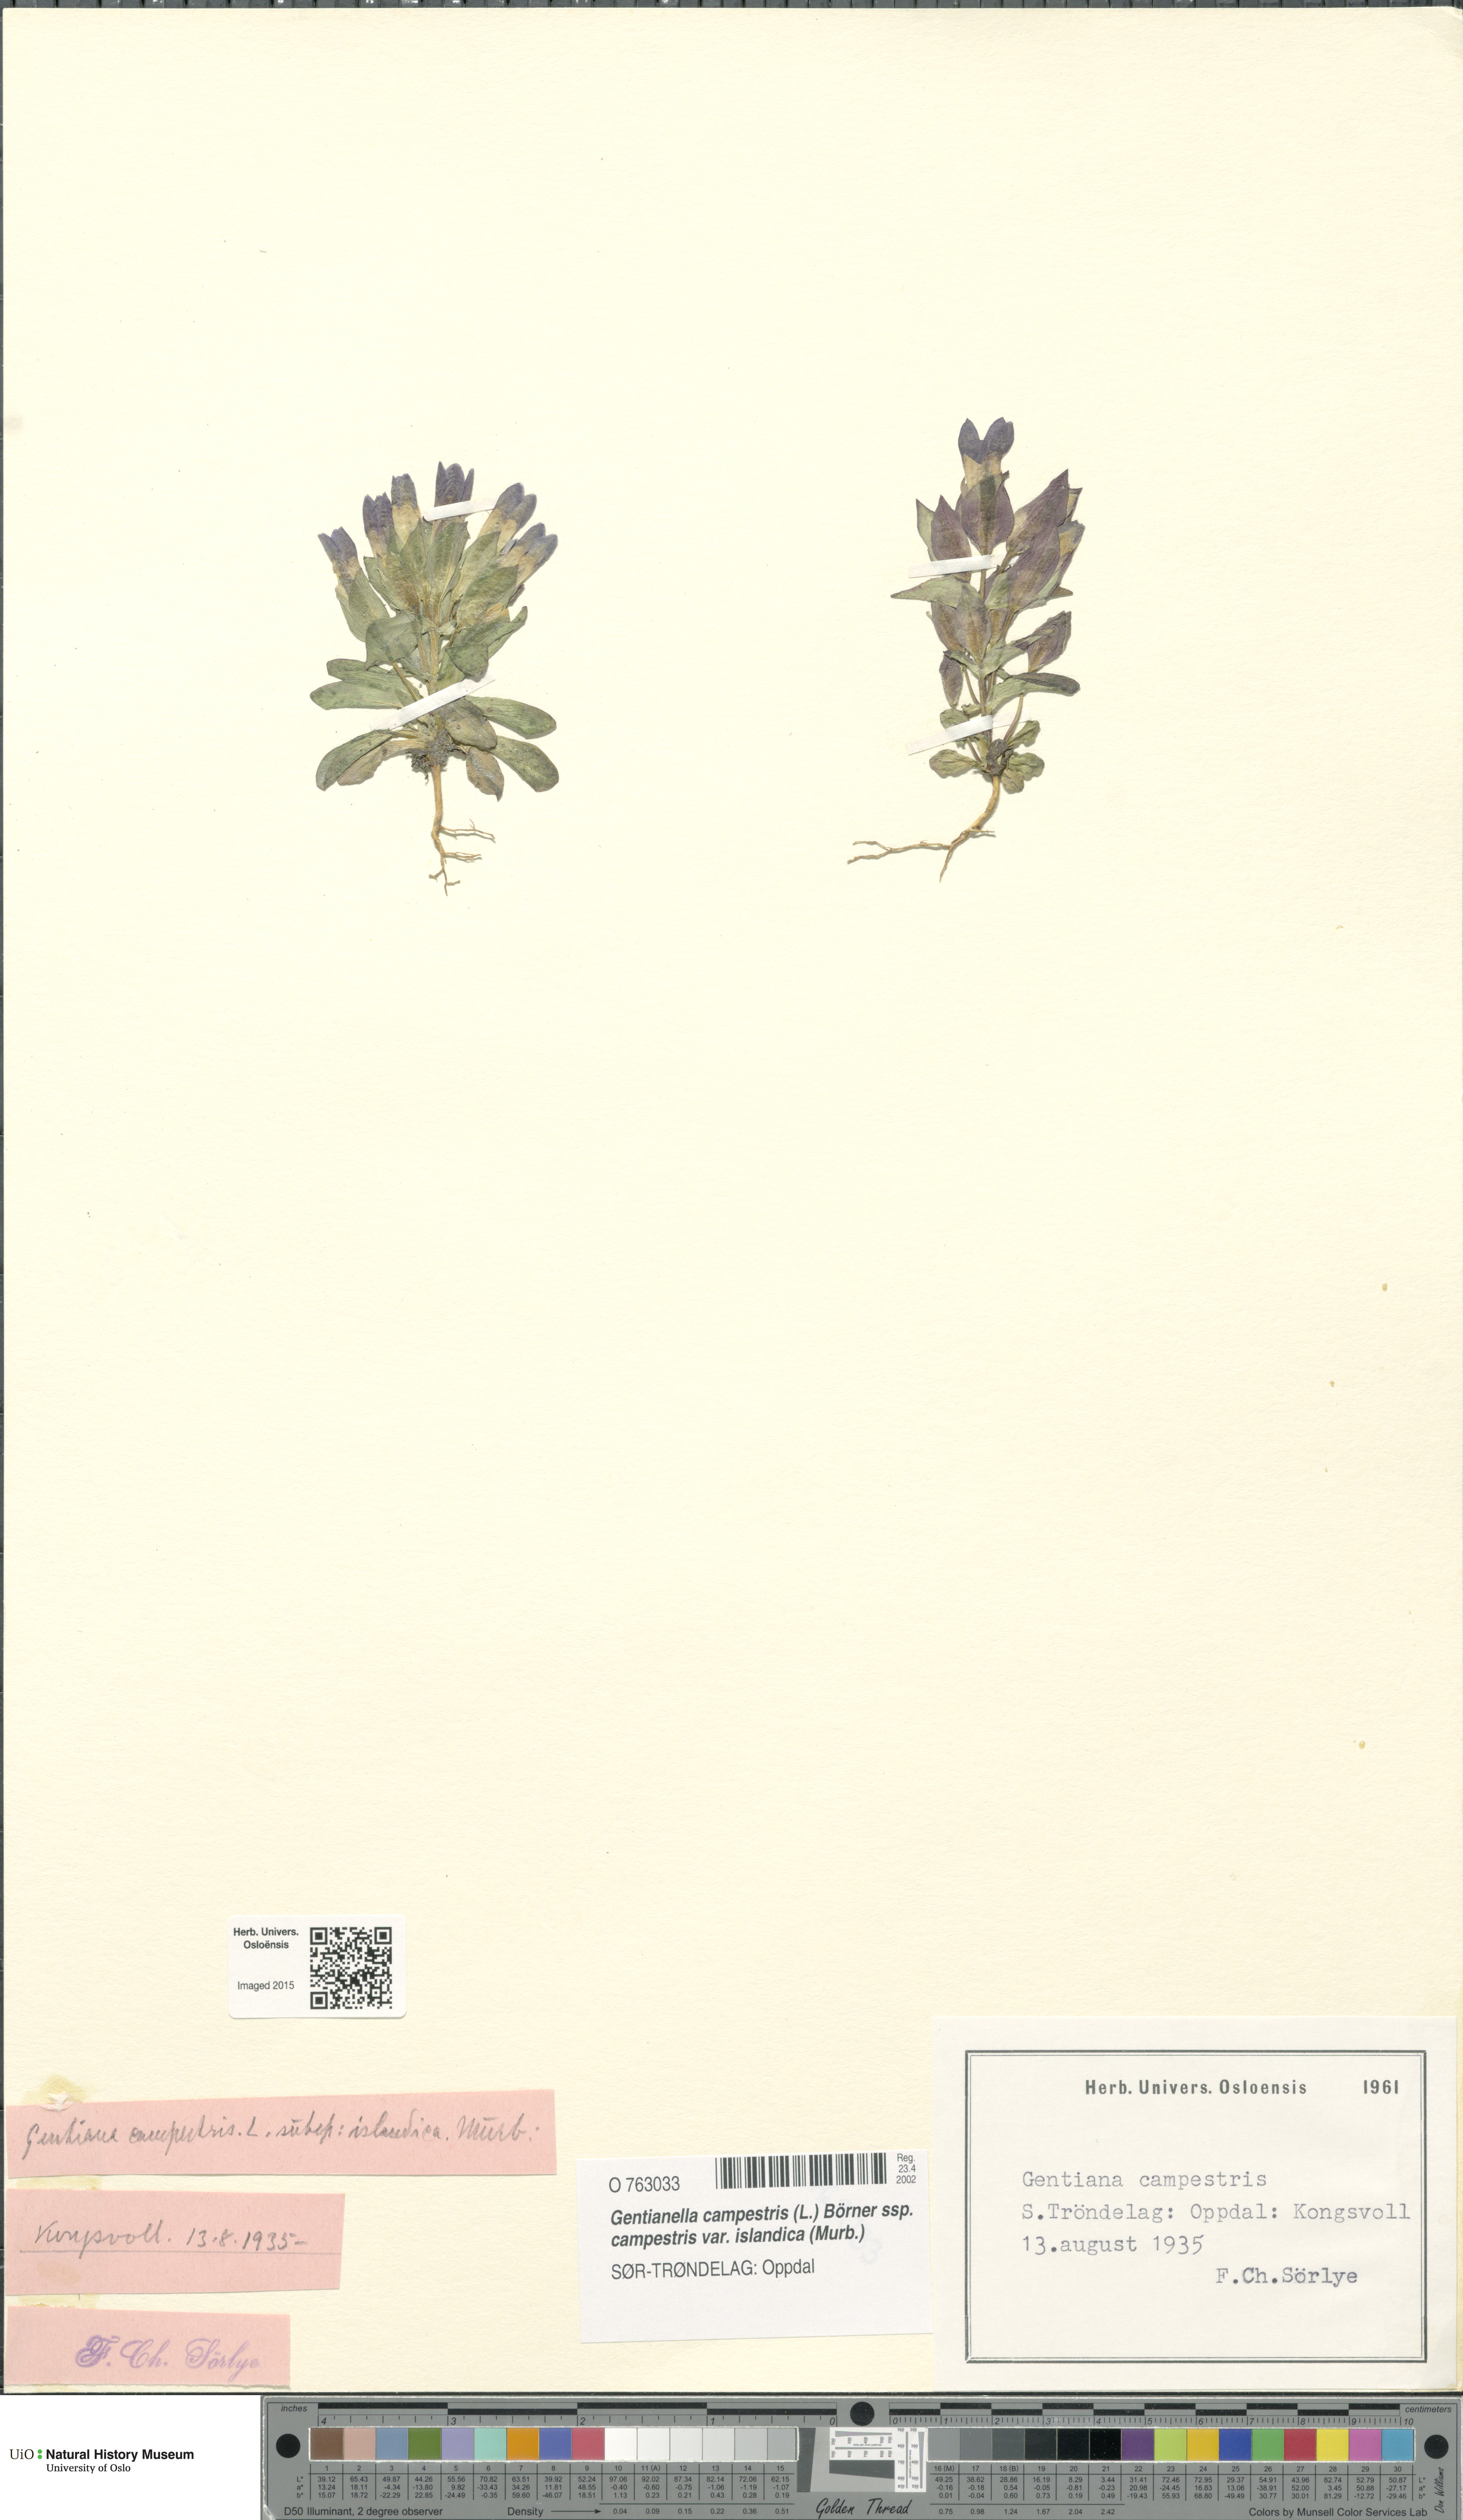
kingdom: Plantae
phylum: Tracheophyta
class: Magnoliopsida
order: Gentianales
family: Gentianaceae
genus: Gentianella
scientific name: Gentianella campestris
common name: Field gentian
